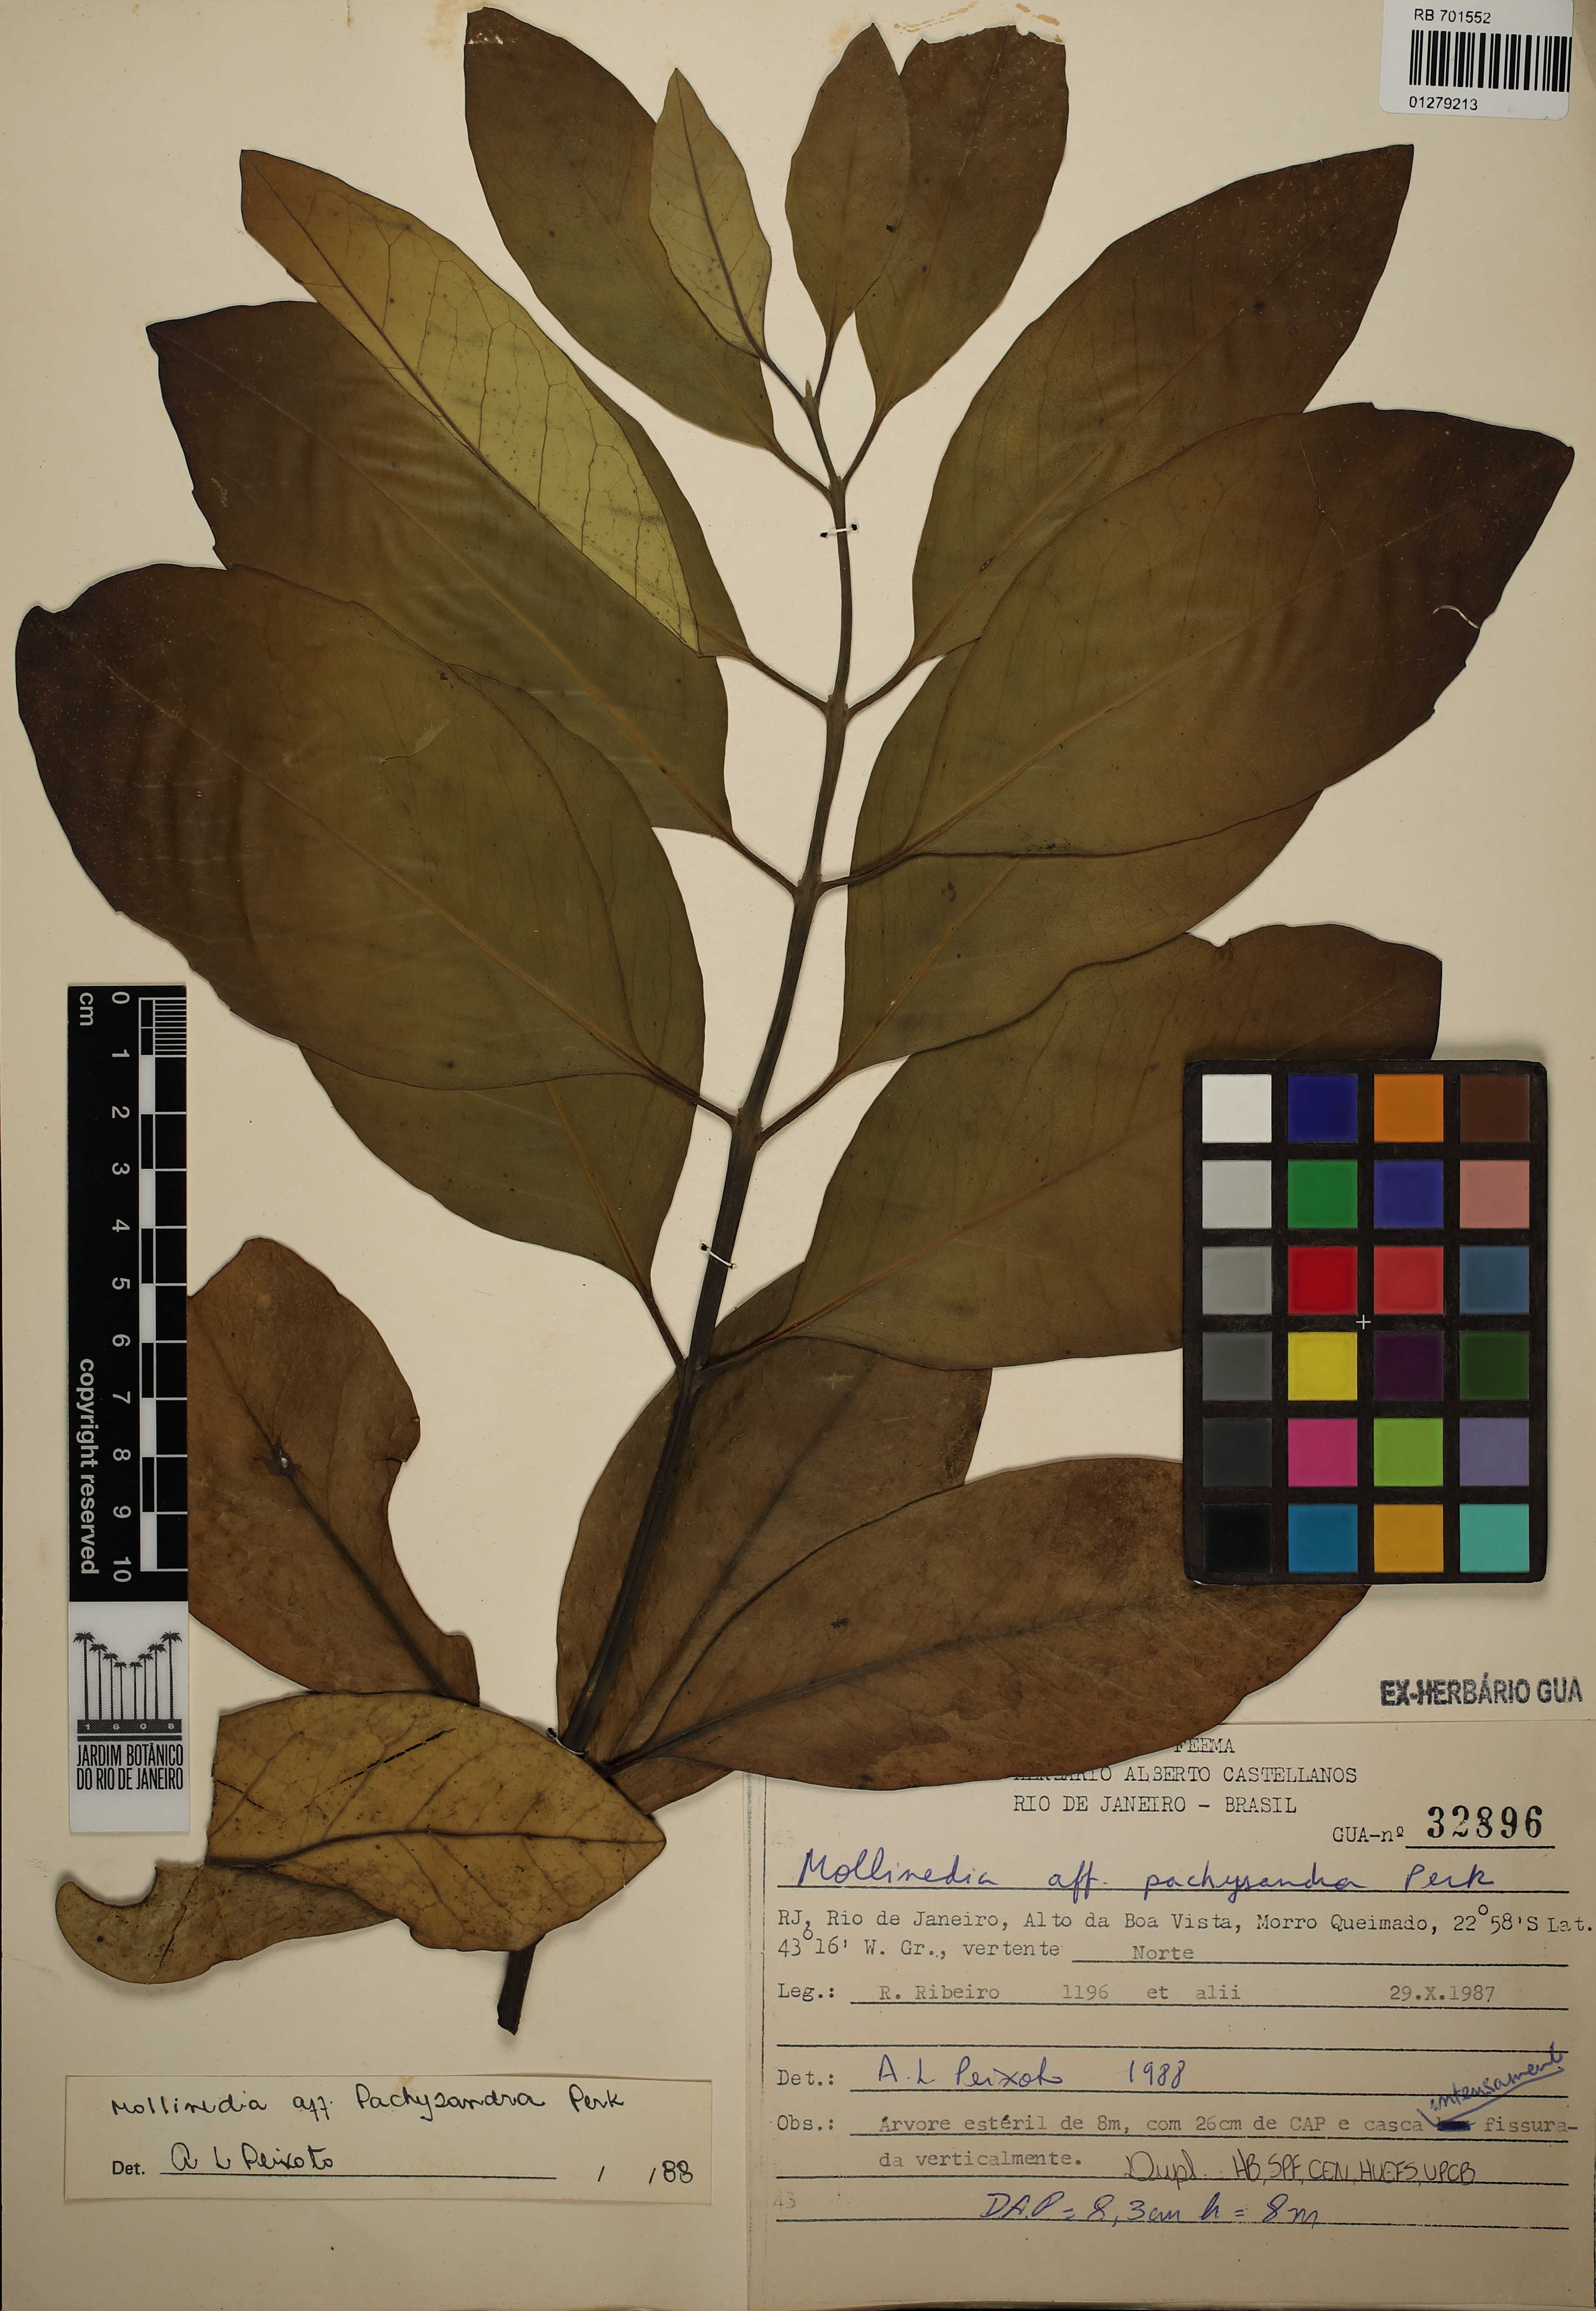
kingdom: Plantae
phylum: Tracheophyta
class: Magnoliopsida
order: Laurales
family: Monimiaceae
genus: Mollinedia
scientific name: Mollinedia pachysandra
